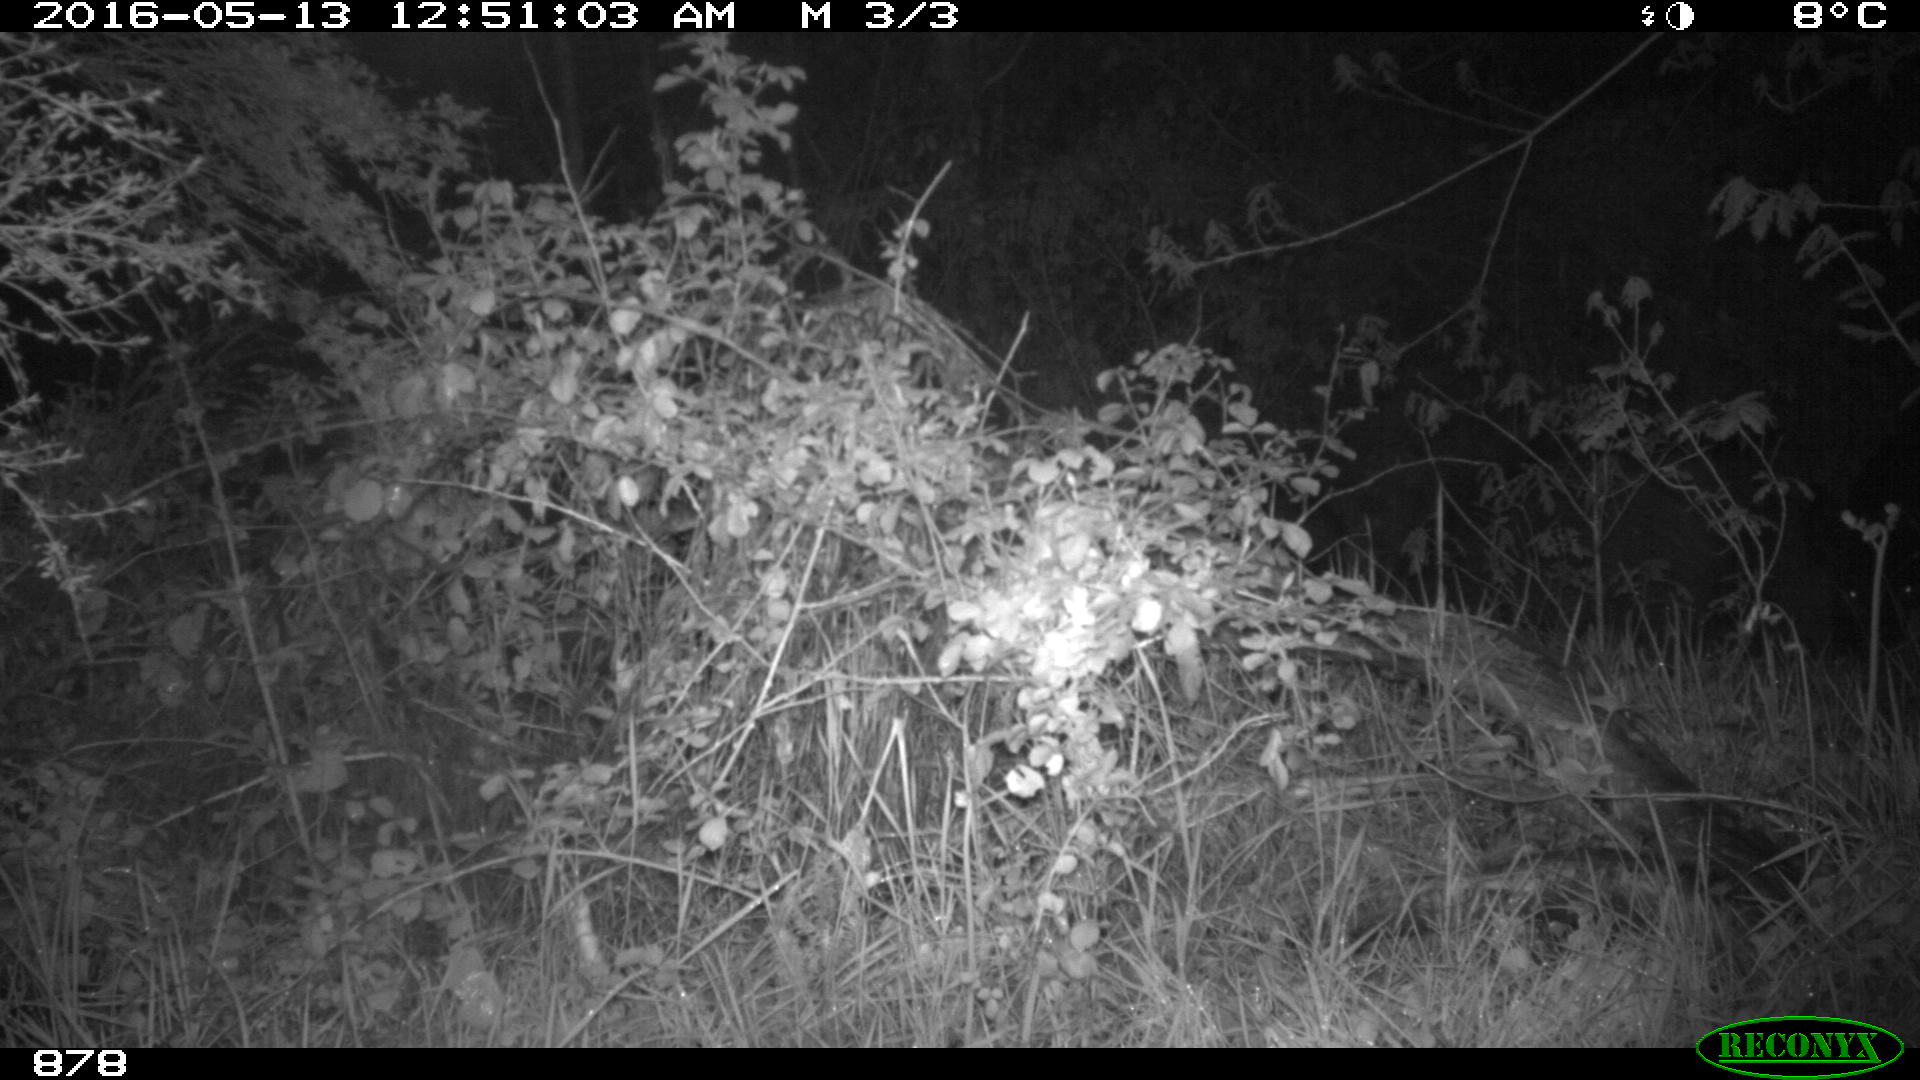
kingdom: Animalia
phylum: Chordata
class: Mammalia
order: Artiodactyla
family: Suidae
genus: Sus
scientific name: Sus scrofa
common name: Wild boar
